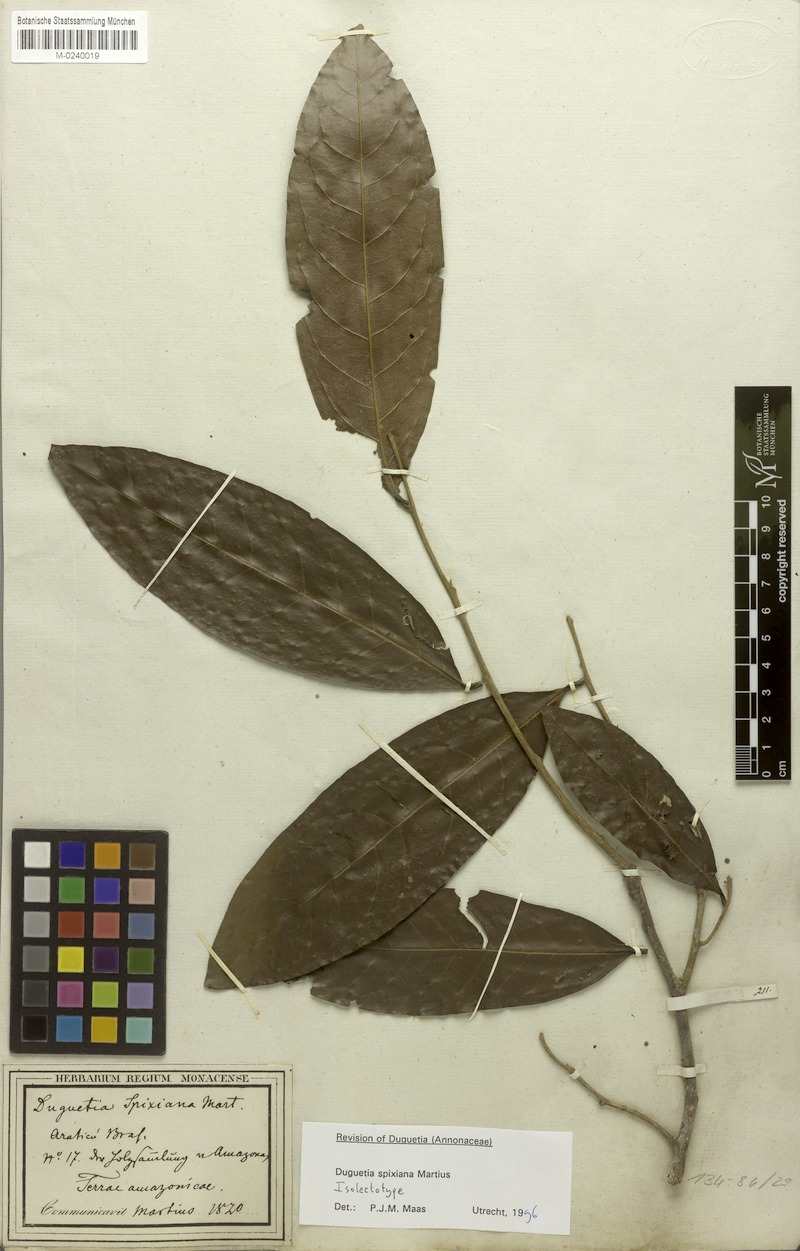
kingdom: Plantae
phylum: Tracheophyta
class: Magnoliopsida
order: Magnoliales
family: Annonaceae
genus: Duguetia
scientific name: Duguetia spixiana
